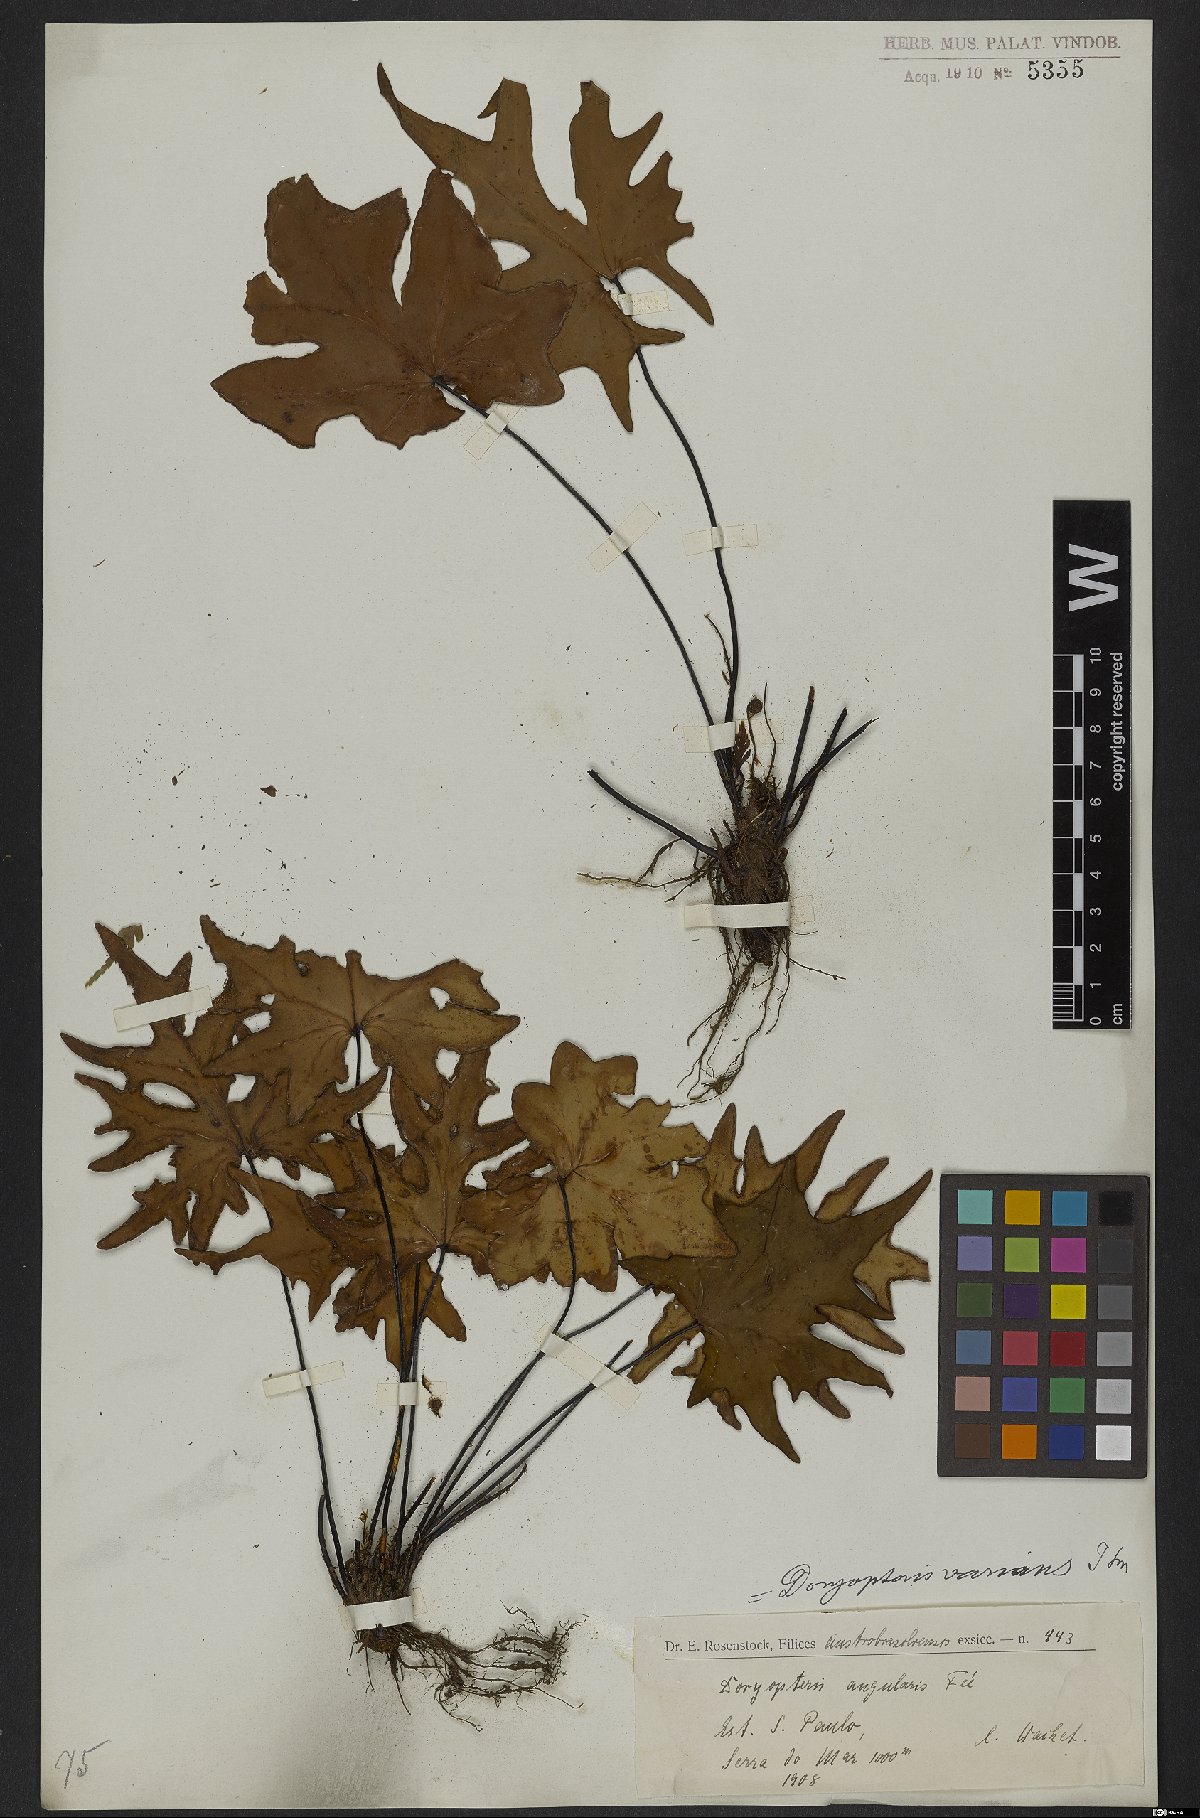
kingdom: Plantae
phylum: Tracheophyta
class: Polypodiopsida
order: Polypodiales
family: Pteridaceae
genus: Doryopteris
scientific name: Doryopteris varians
